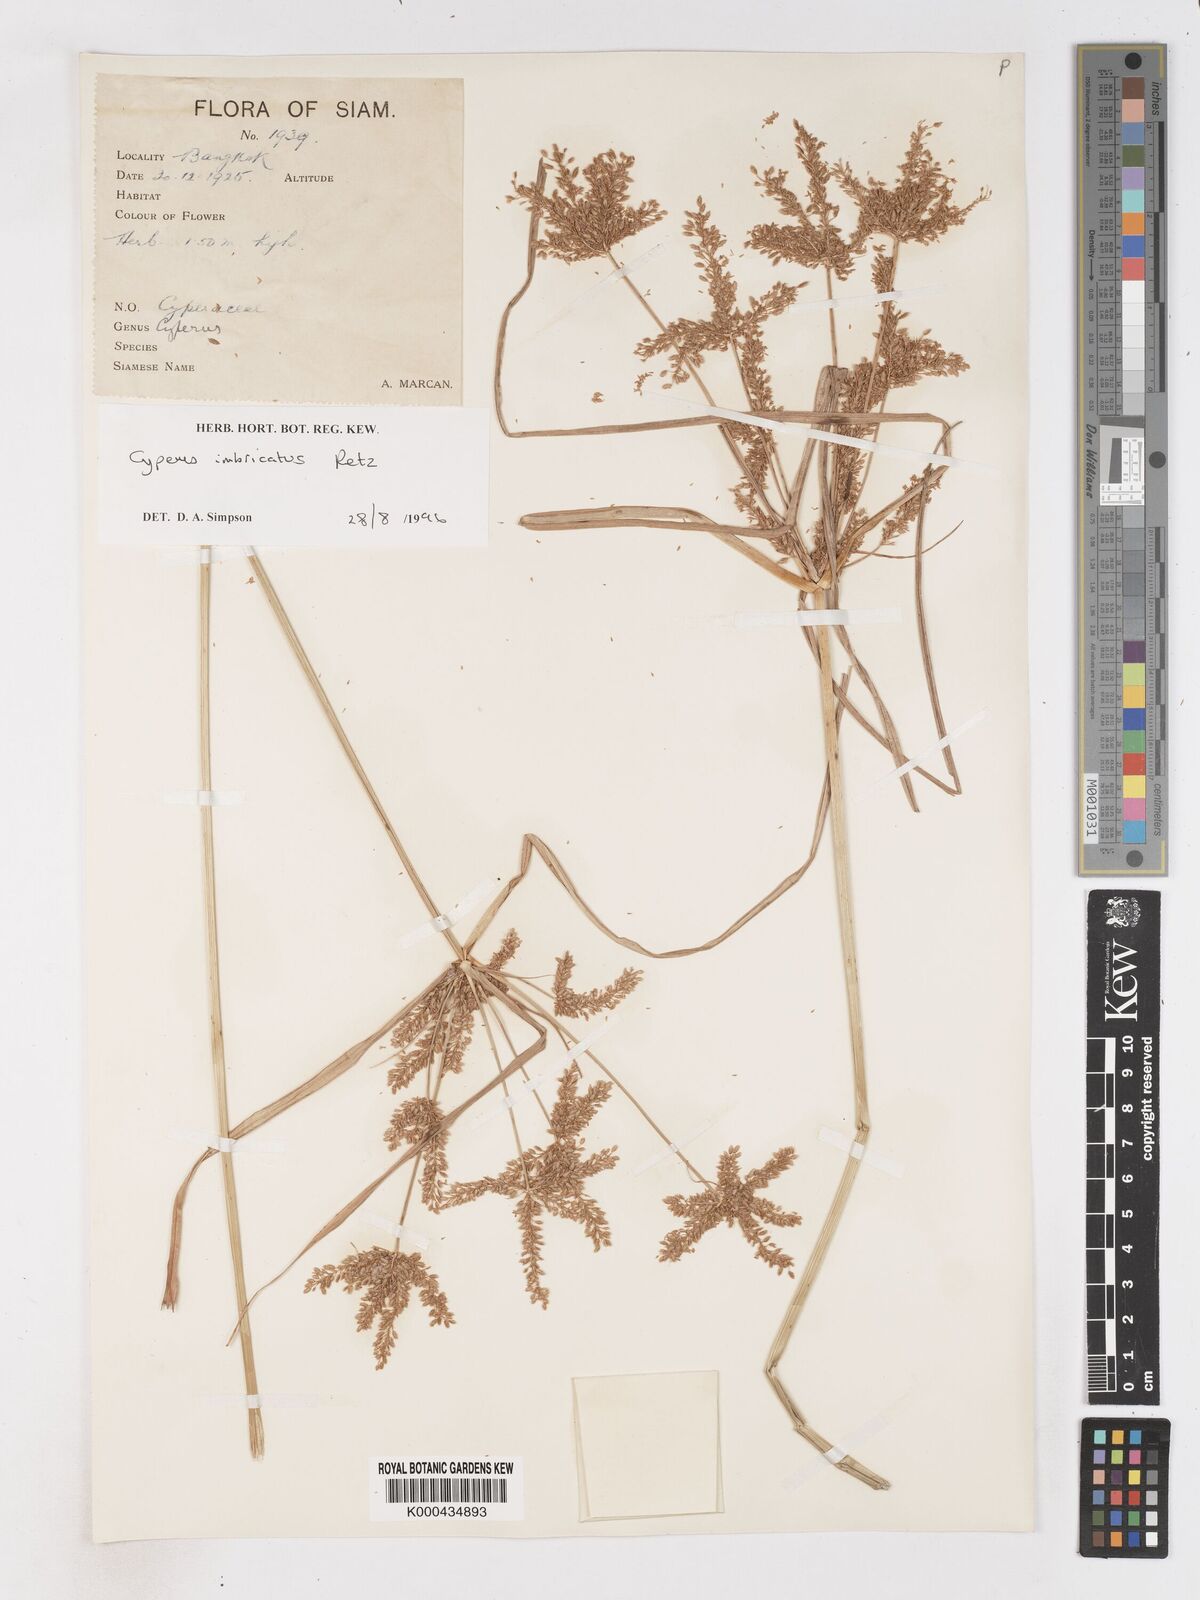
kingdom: Plantae
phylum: Tracheophyta
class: Liliopsida
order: Poales
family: Cyperaceae
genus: Cyperus
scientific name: Cyperus imbricatus
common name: Shingle flatsedge
